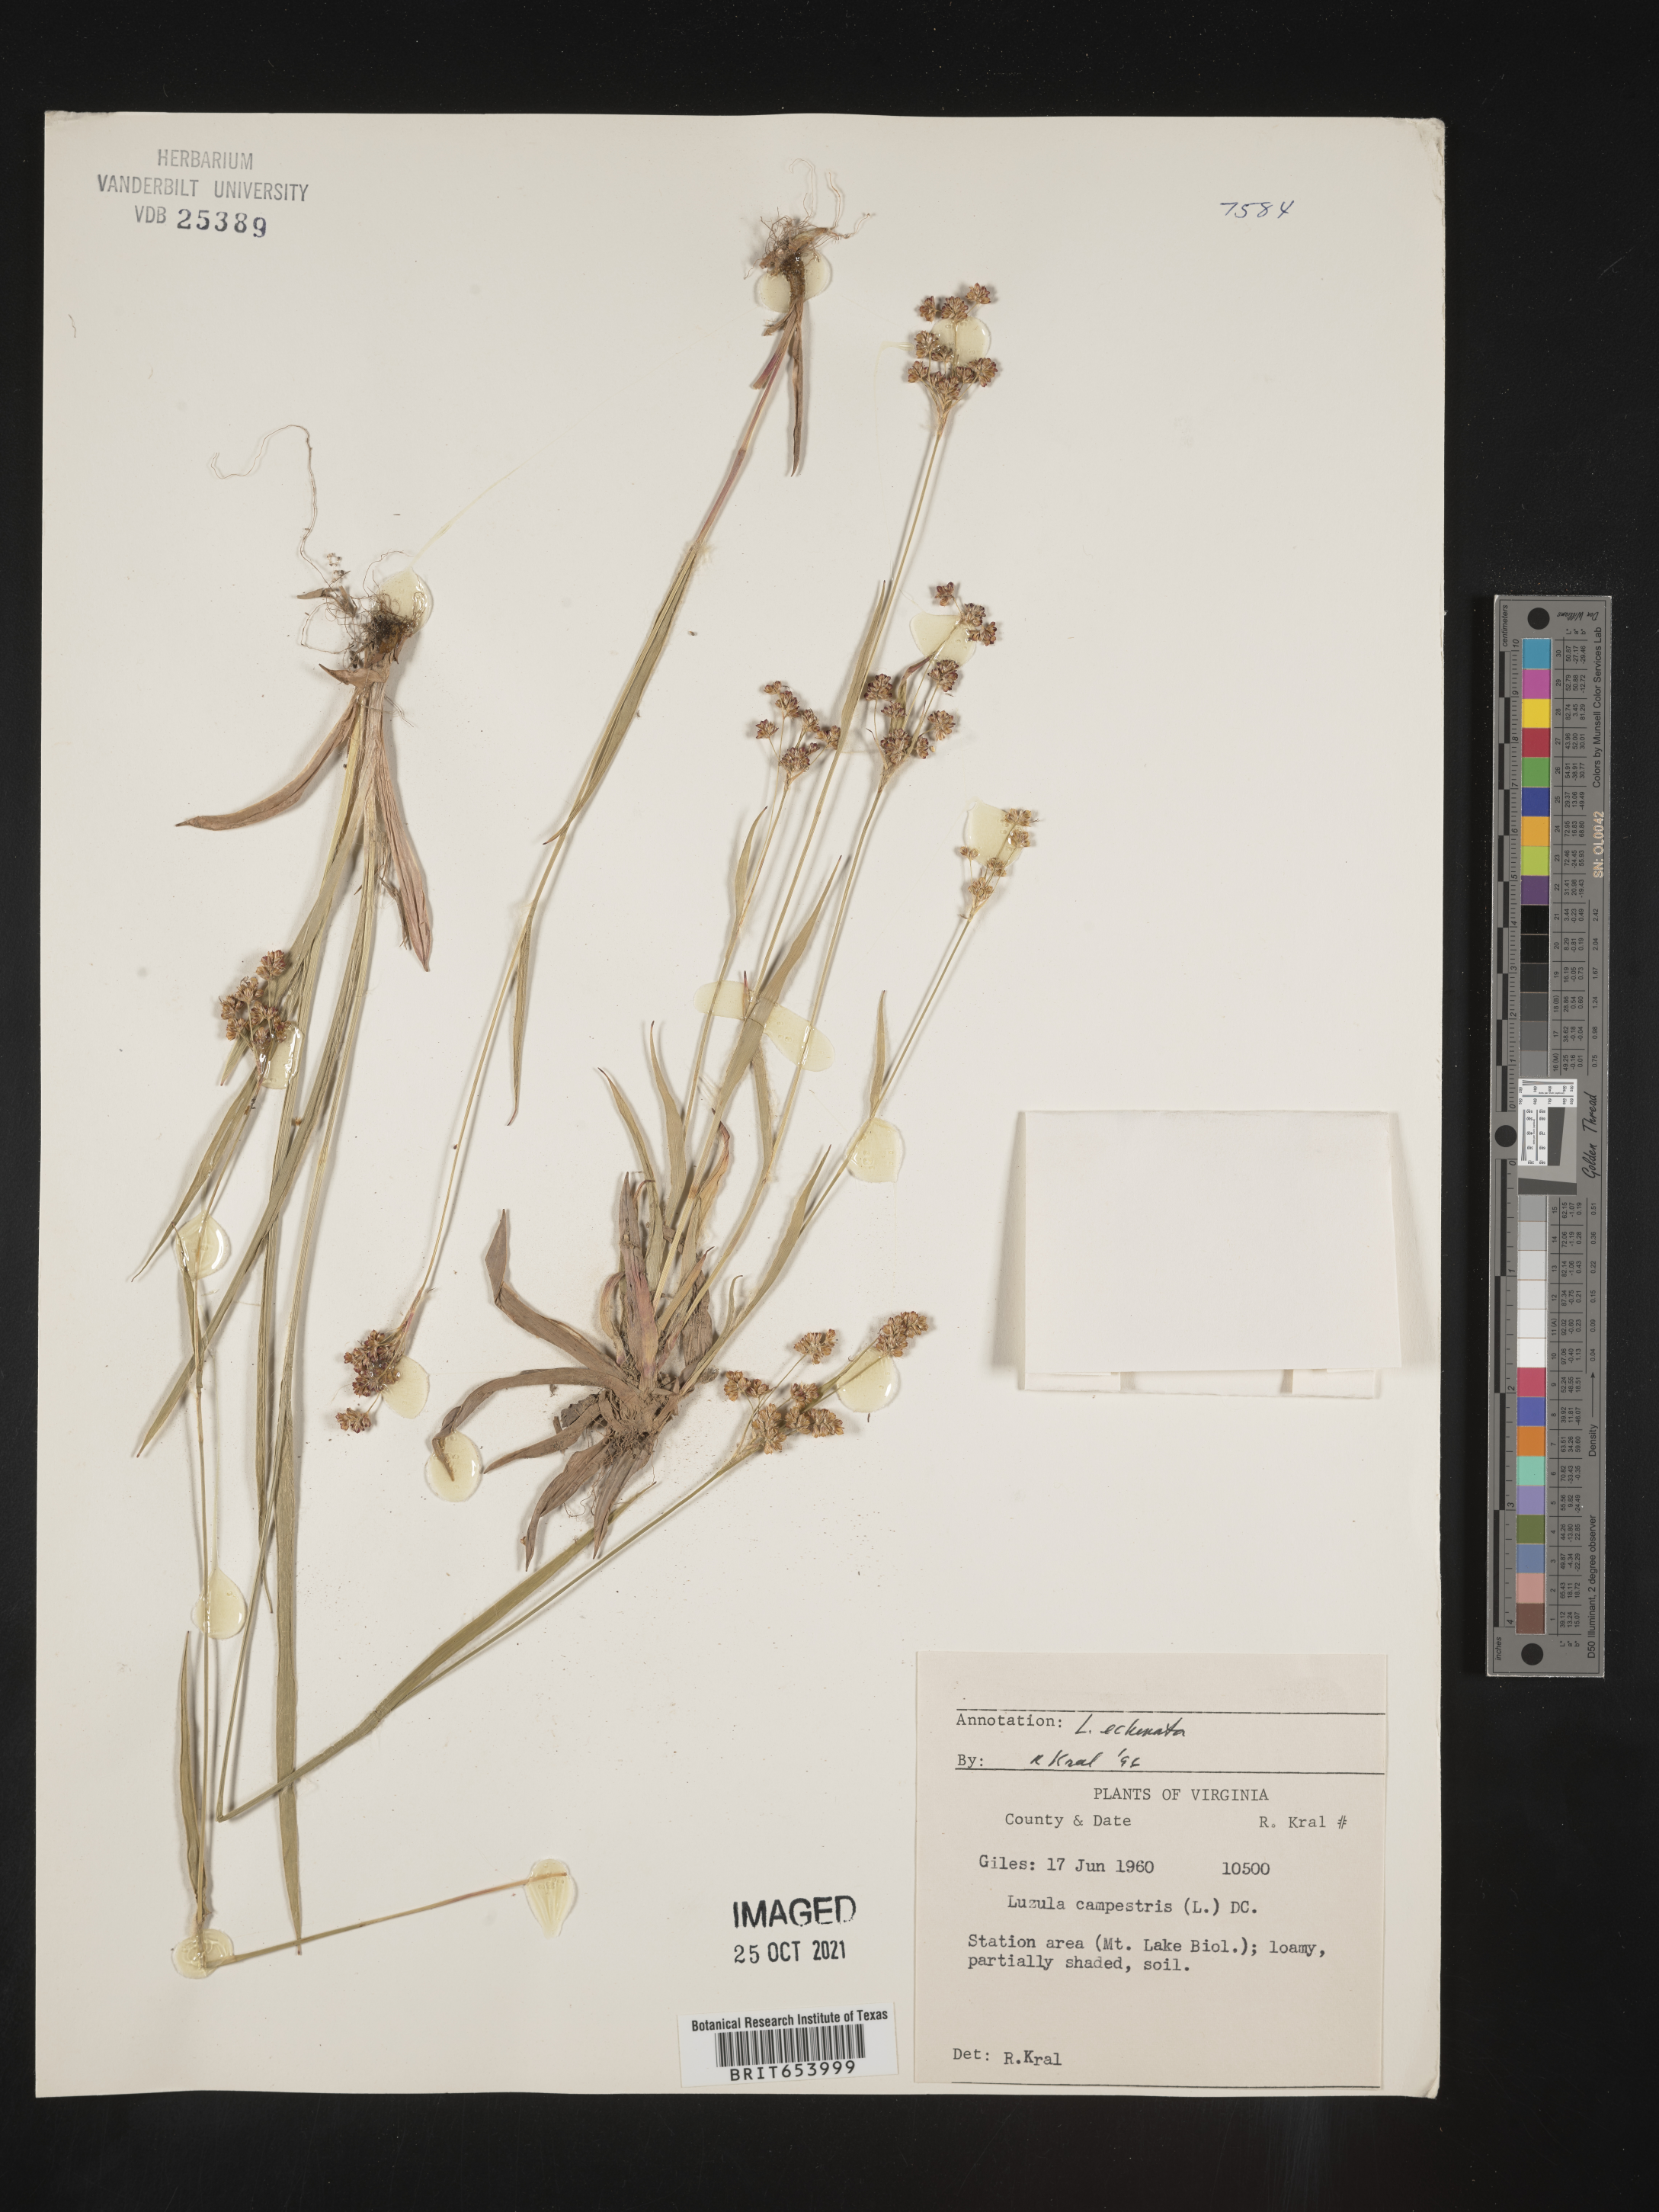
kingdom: Plantae
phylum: Tracheophyta
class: Liliopsida
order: Poales
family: Juncaceae
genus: Luzula
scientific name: Luzula echinata
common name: Hedgehog woodrush
